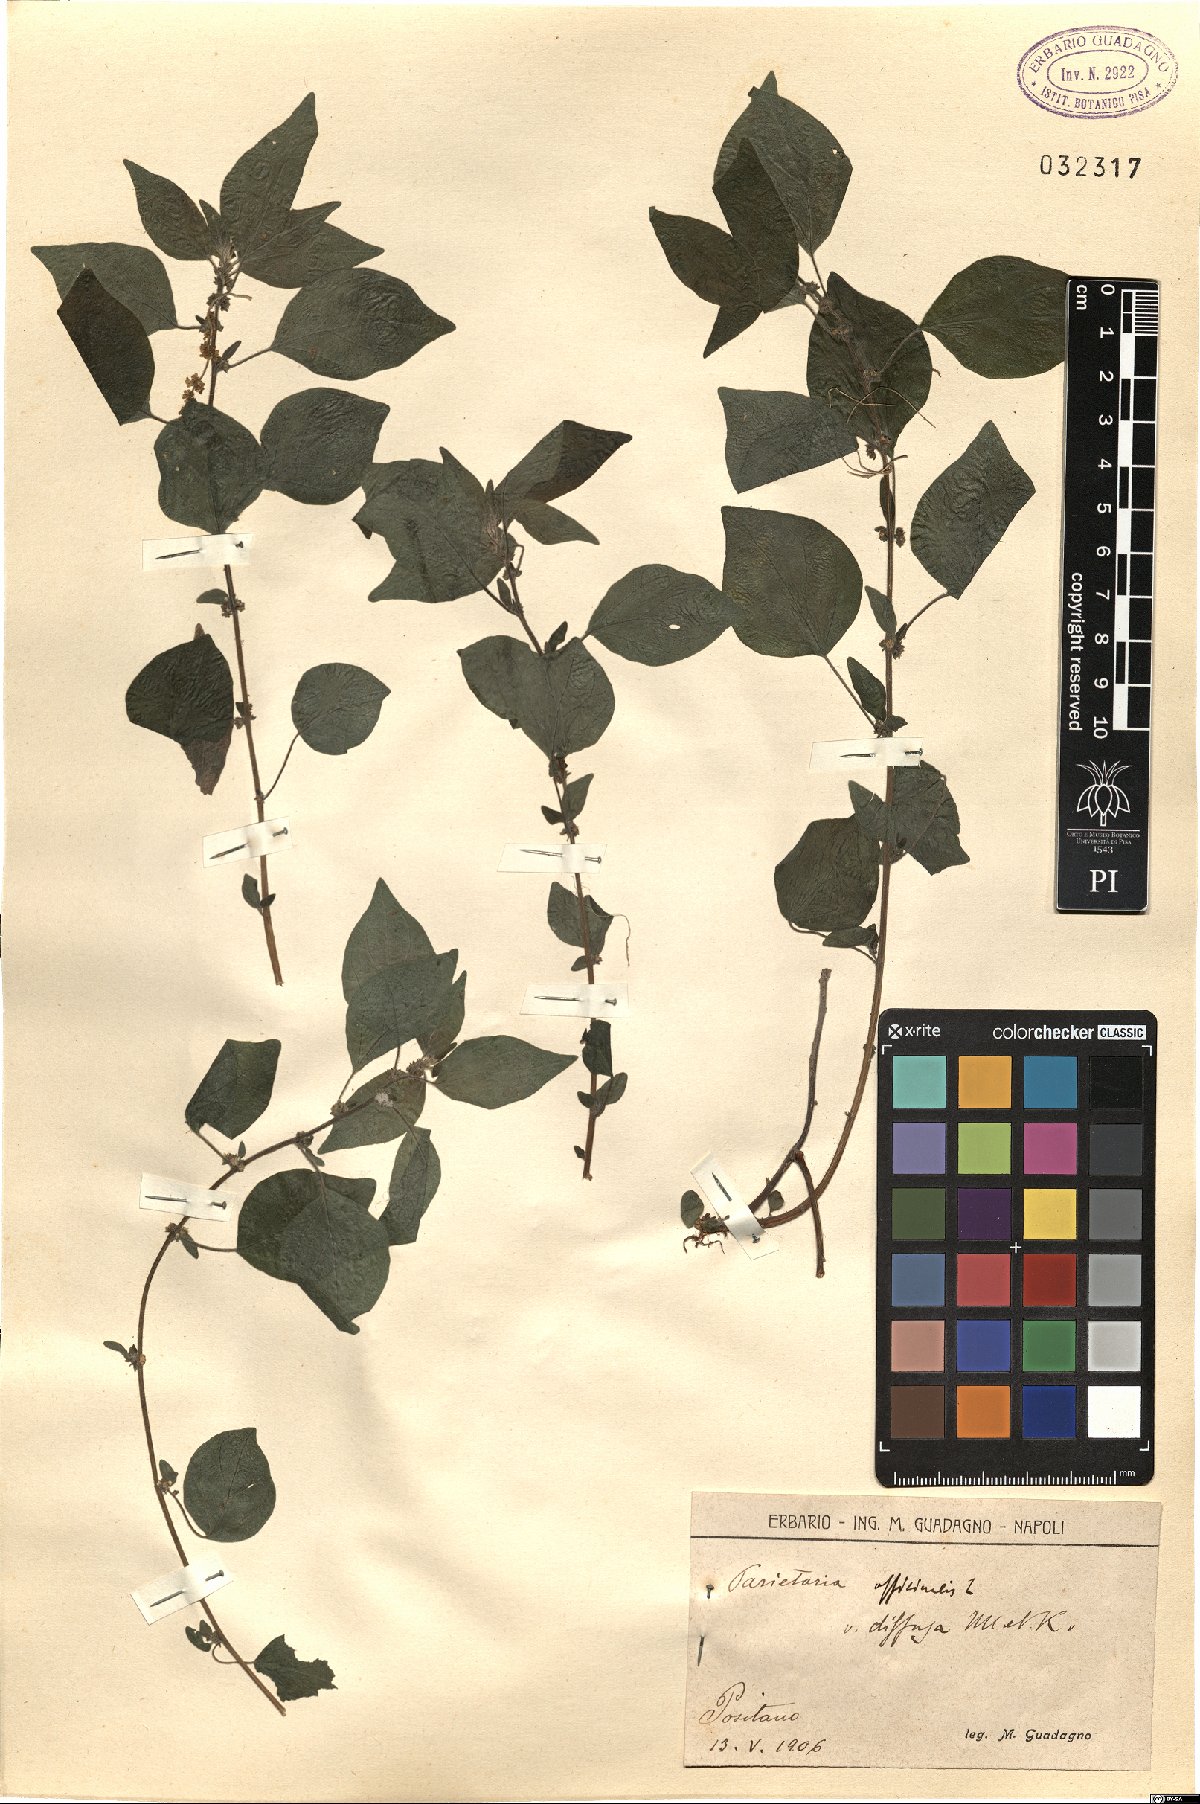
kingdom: Plantae
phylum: Tracheophyta
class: Magnoliopsida
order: Rosales
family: Urticaceae
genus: Parietaria
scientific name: Parietaria judaica
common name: Pellitory-of-the-wall
